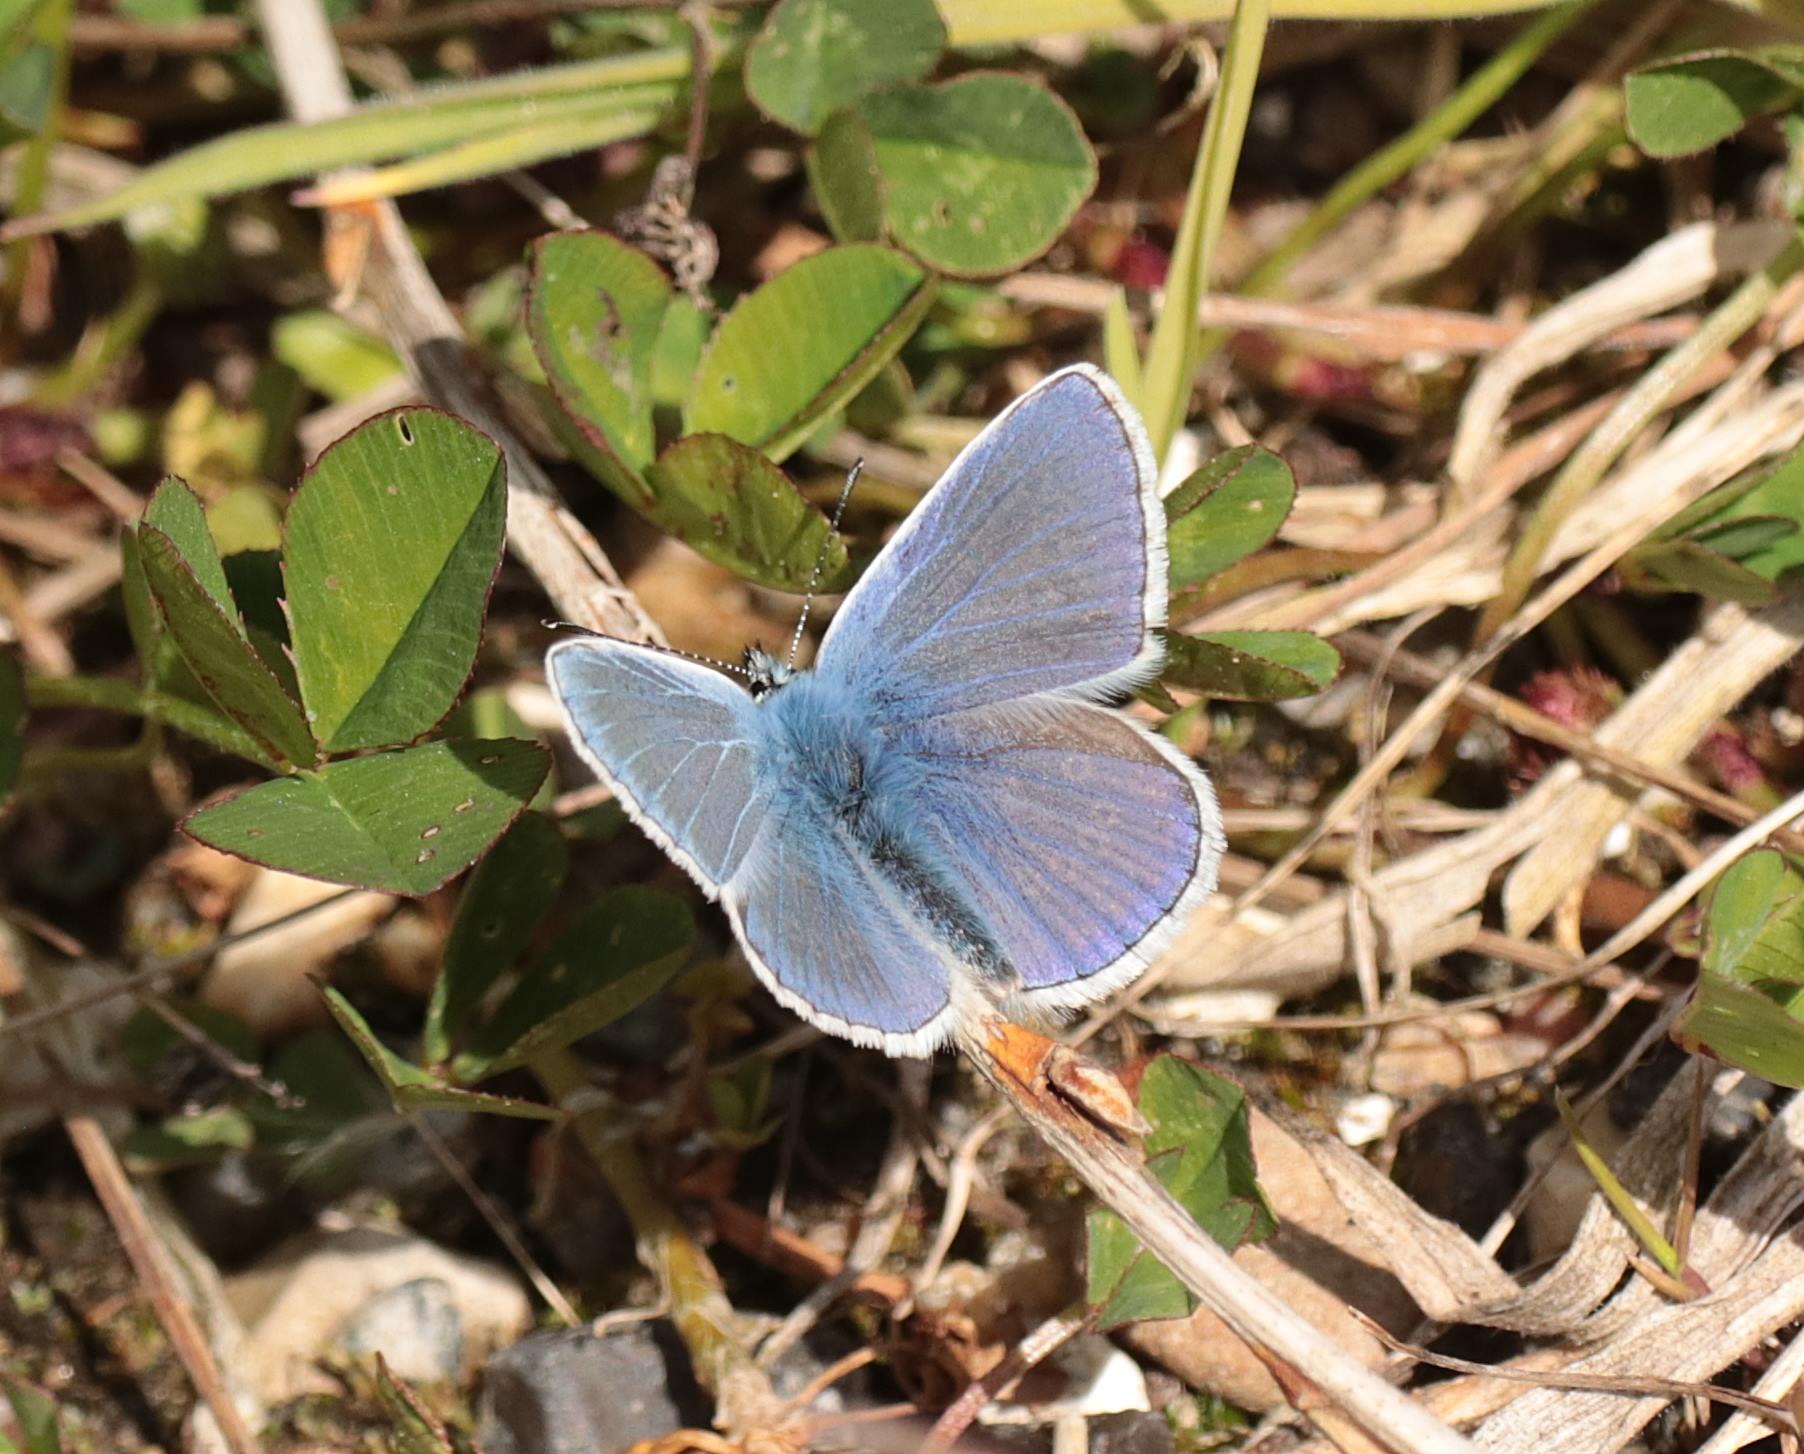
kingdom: Animalia
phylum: Arthropoda
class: Insecta
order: Lepidoptera
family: Lycaenidae
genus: Polyommatus
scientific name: Polyommatus icarus
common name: Almindelig blåfugl
